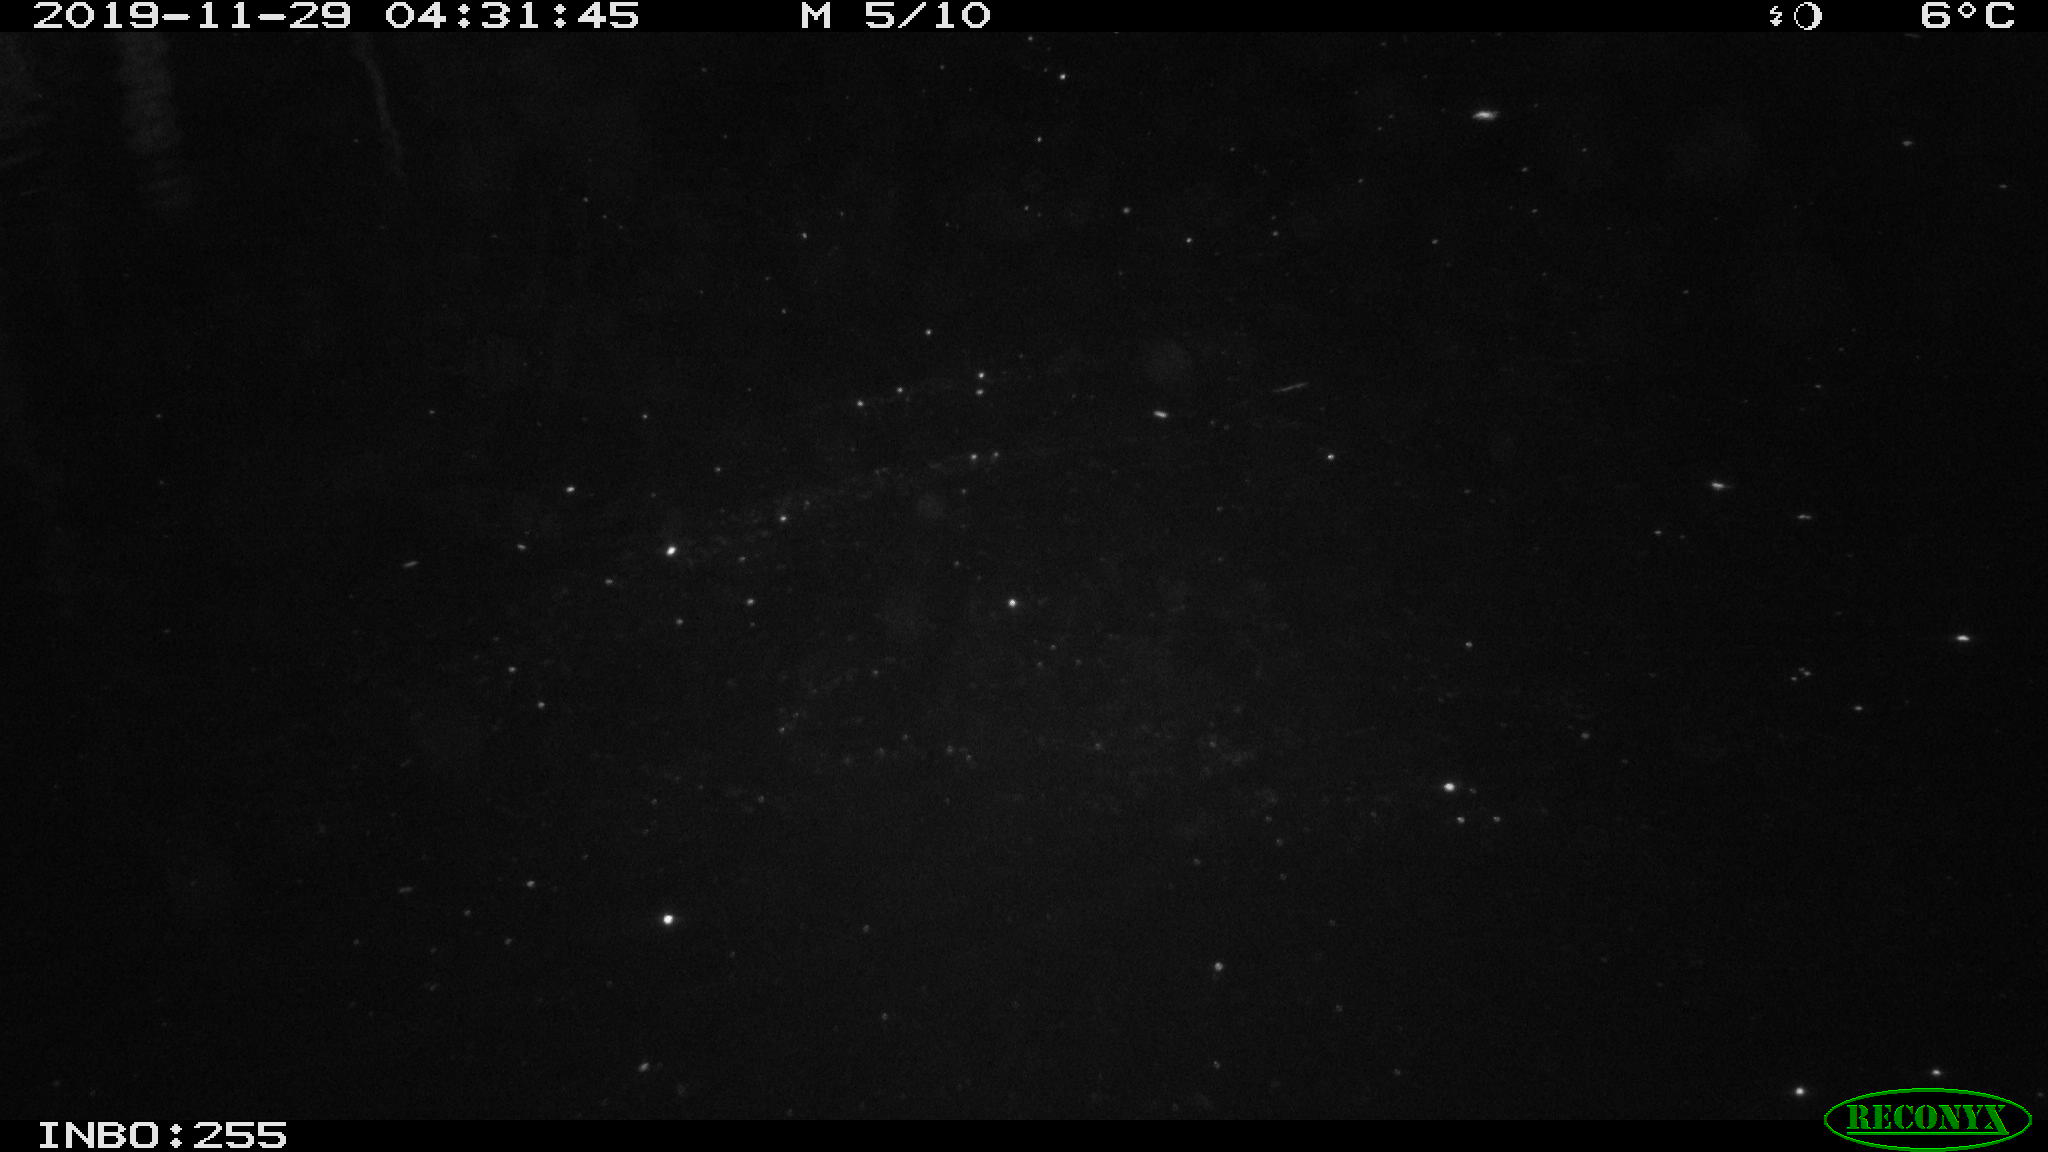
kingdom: Animalia
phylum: Chordata
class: Mammalia
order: Rodentia
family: Muridae
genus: Rattus
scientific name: Rattus norvegicus
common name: Brown rat
